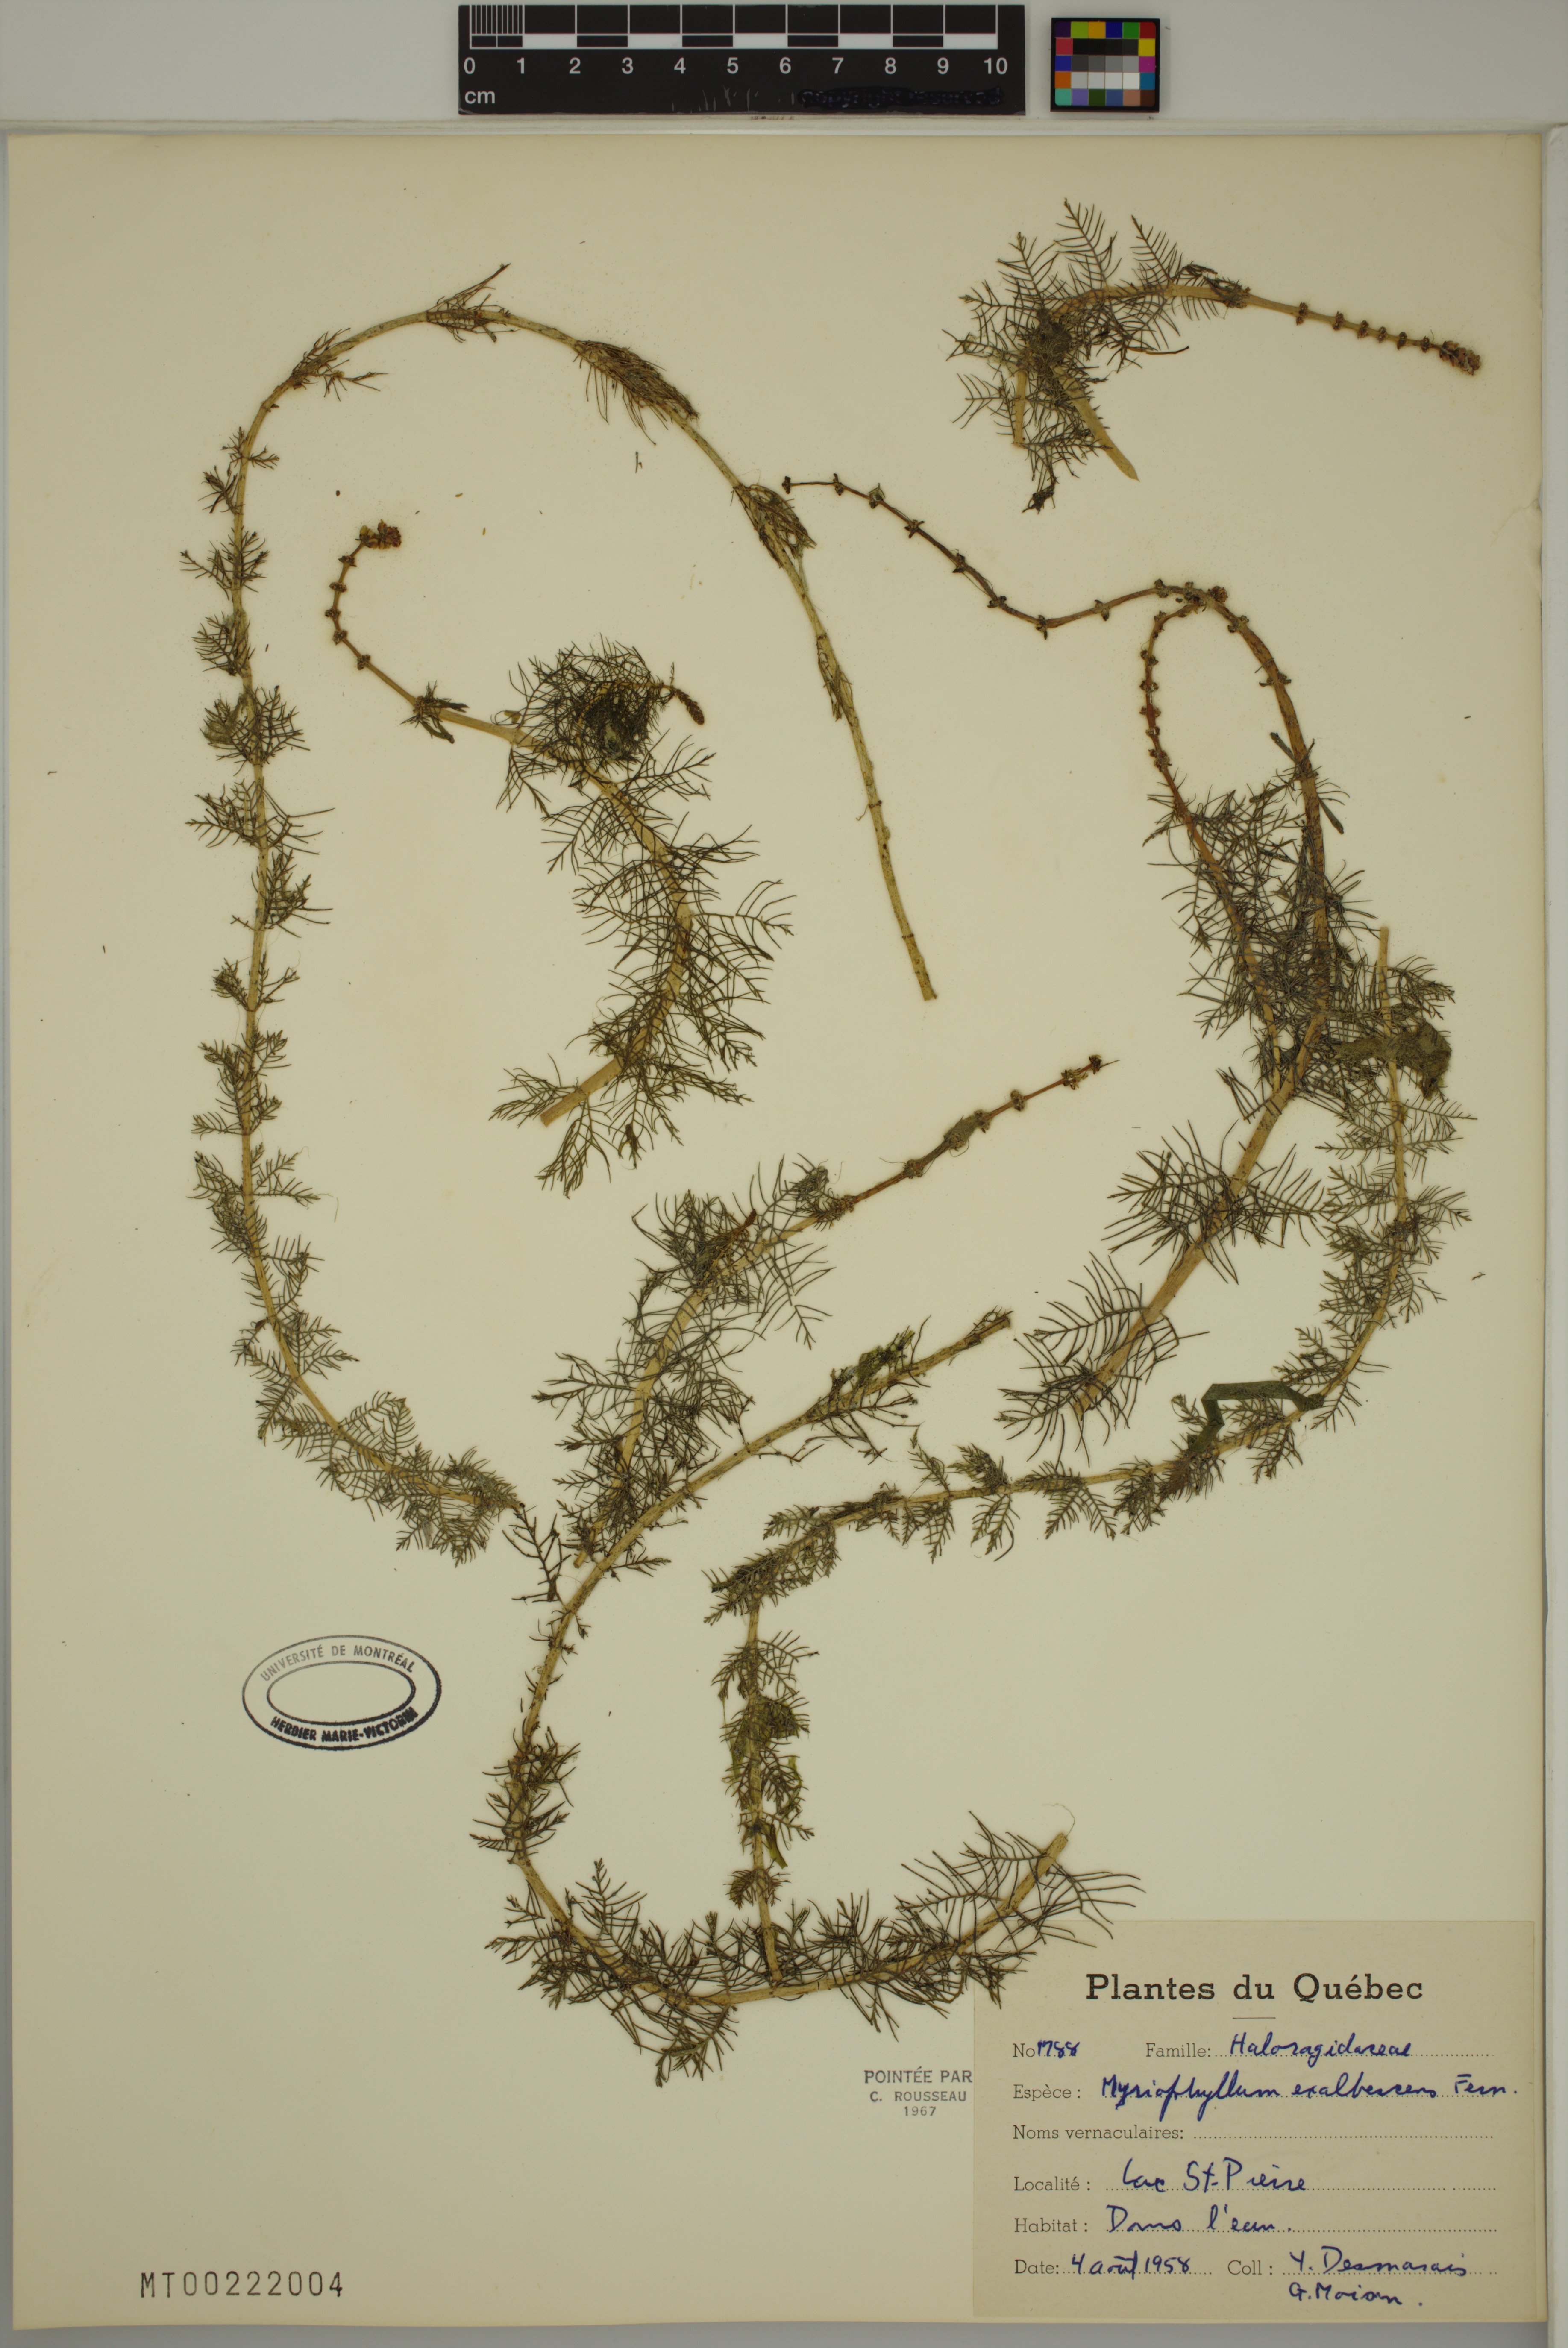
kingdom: Plantae
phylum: Tracheophyta
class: Magnoliopsida
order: Saxifragales
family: Haloragaceae
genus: Myriophyllum
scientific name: Myriophyllum sibiricum
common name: Siberian water-milfoil
